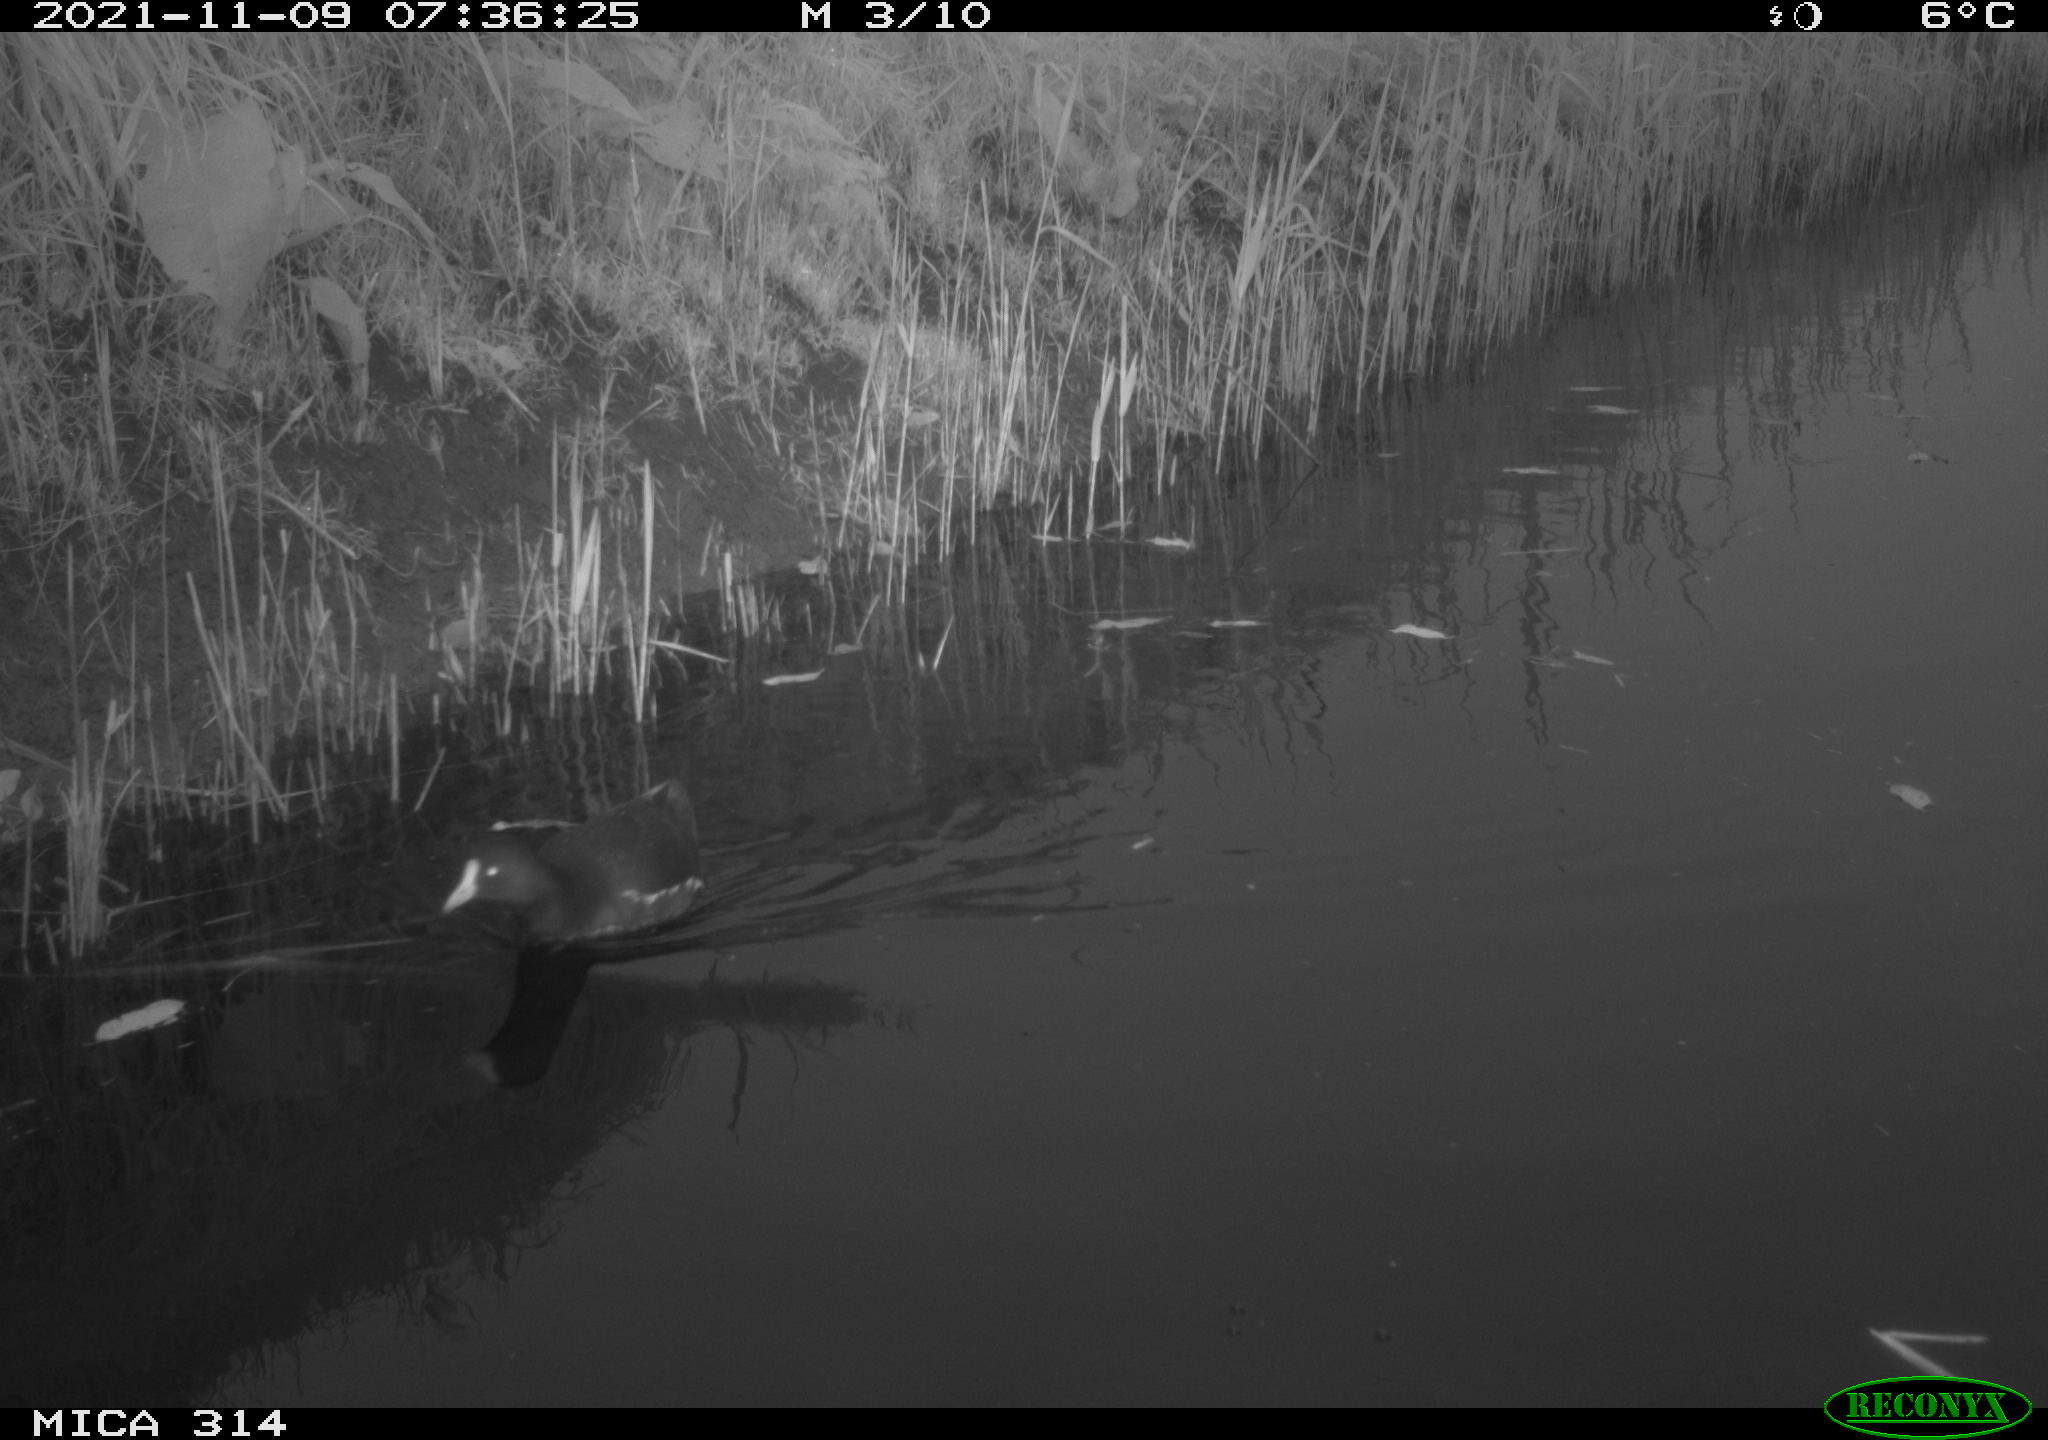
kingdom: Animalia
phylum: Chordata
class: Aves
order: Gruiformes
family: Rallidae
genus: Gallinula
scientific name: Gallinula chloropus
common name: Common moorhen
